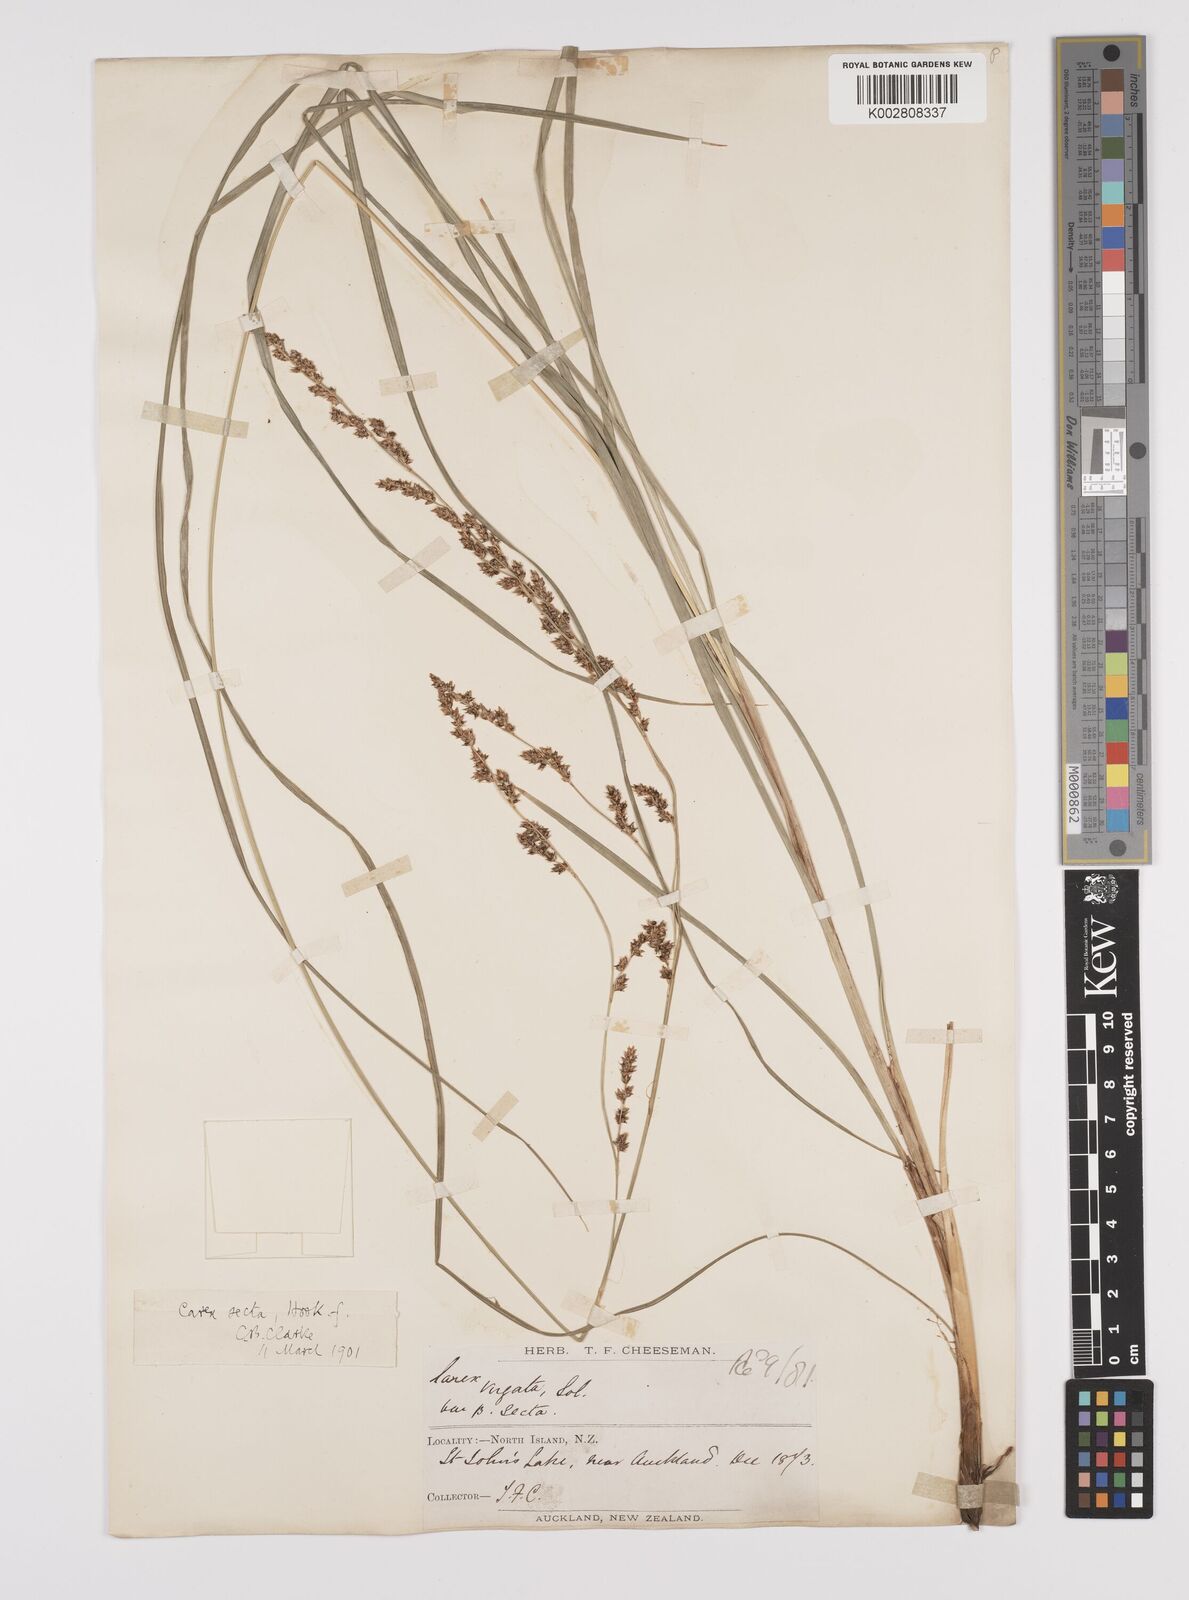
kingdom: Plantae
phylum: Tracheophyta
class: Liliopsida
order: Poales
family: Cyperaceae
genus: Carex
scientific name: Carex appressa
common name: Tussock sedge
